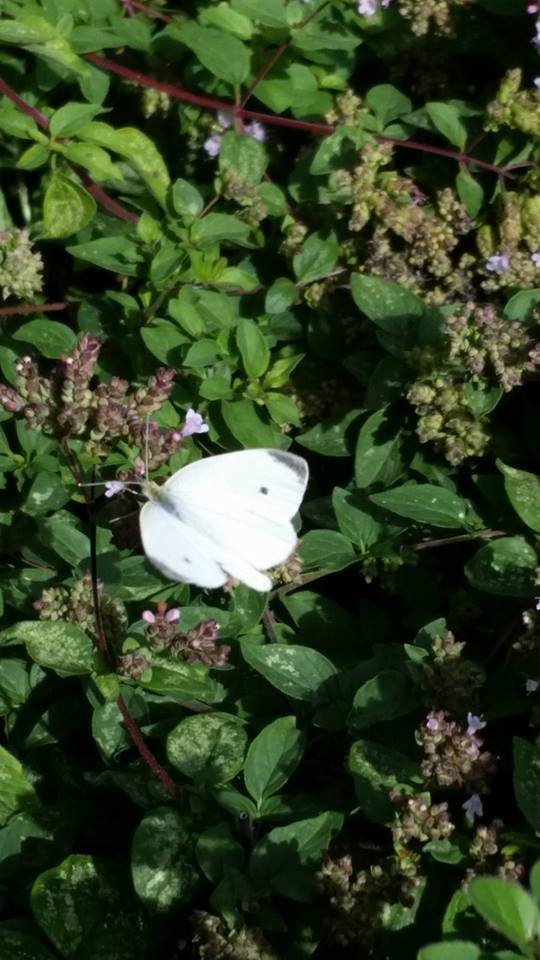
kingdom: Animalia
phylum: Arthropoda
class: Insecta
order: Lepidoptera
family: Pieridae
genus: Pieris
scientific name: Pieris rapae
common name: Cabbage White
